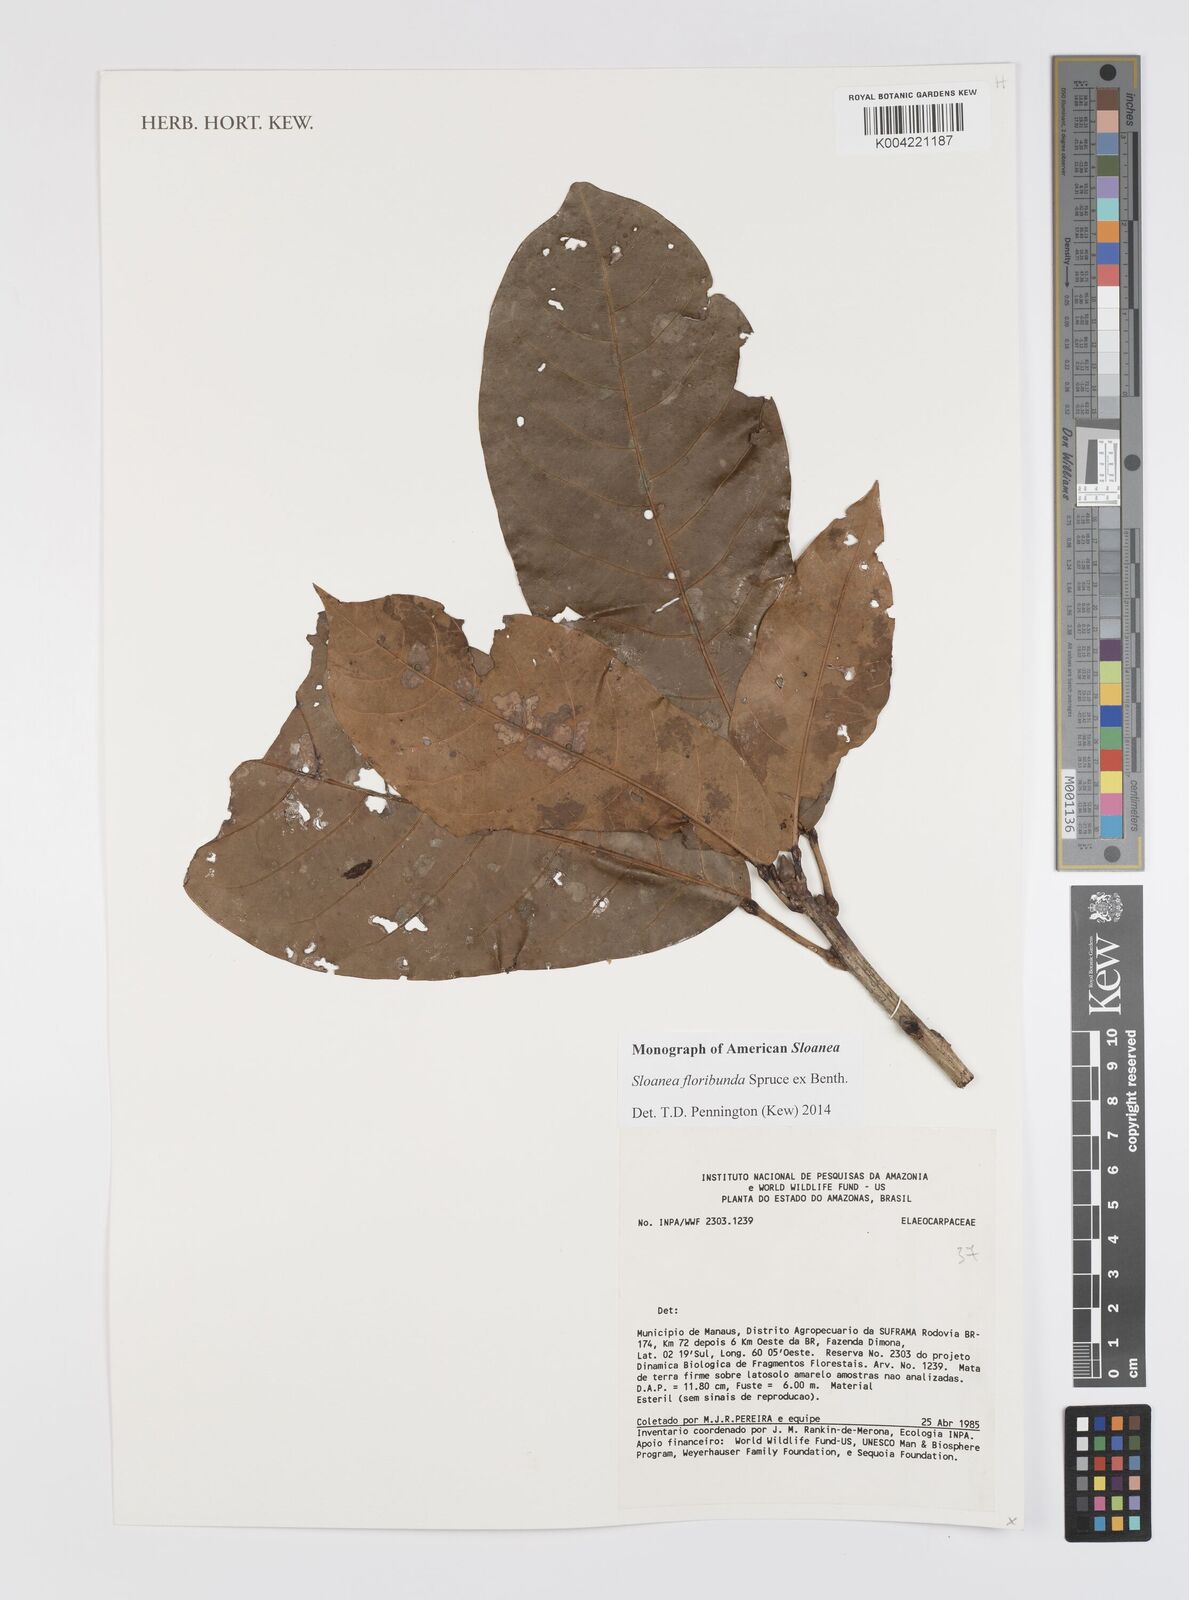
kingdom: Plantae
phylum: Tracheophyta
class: Magnoliopsida
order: Oxalidales
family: Elaeocarpaceae
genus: Sloanea
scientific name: Sloanea floribunda
